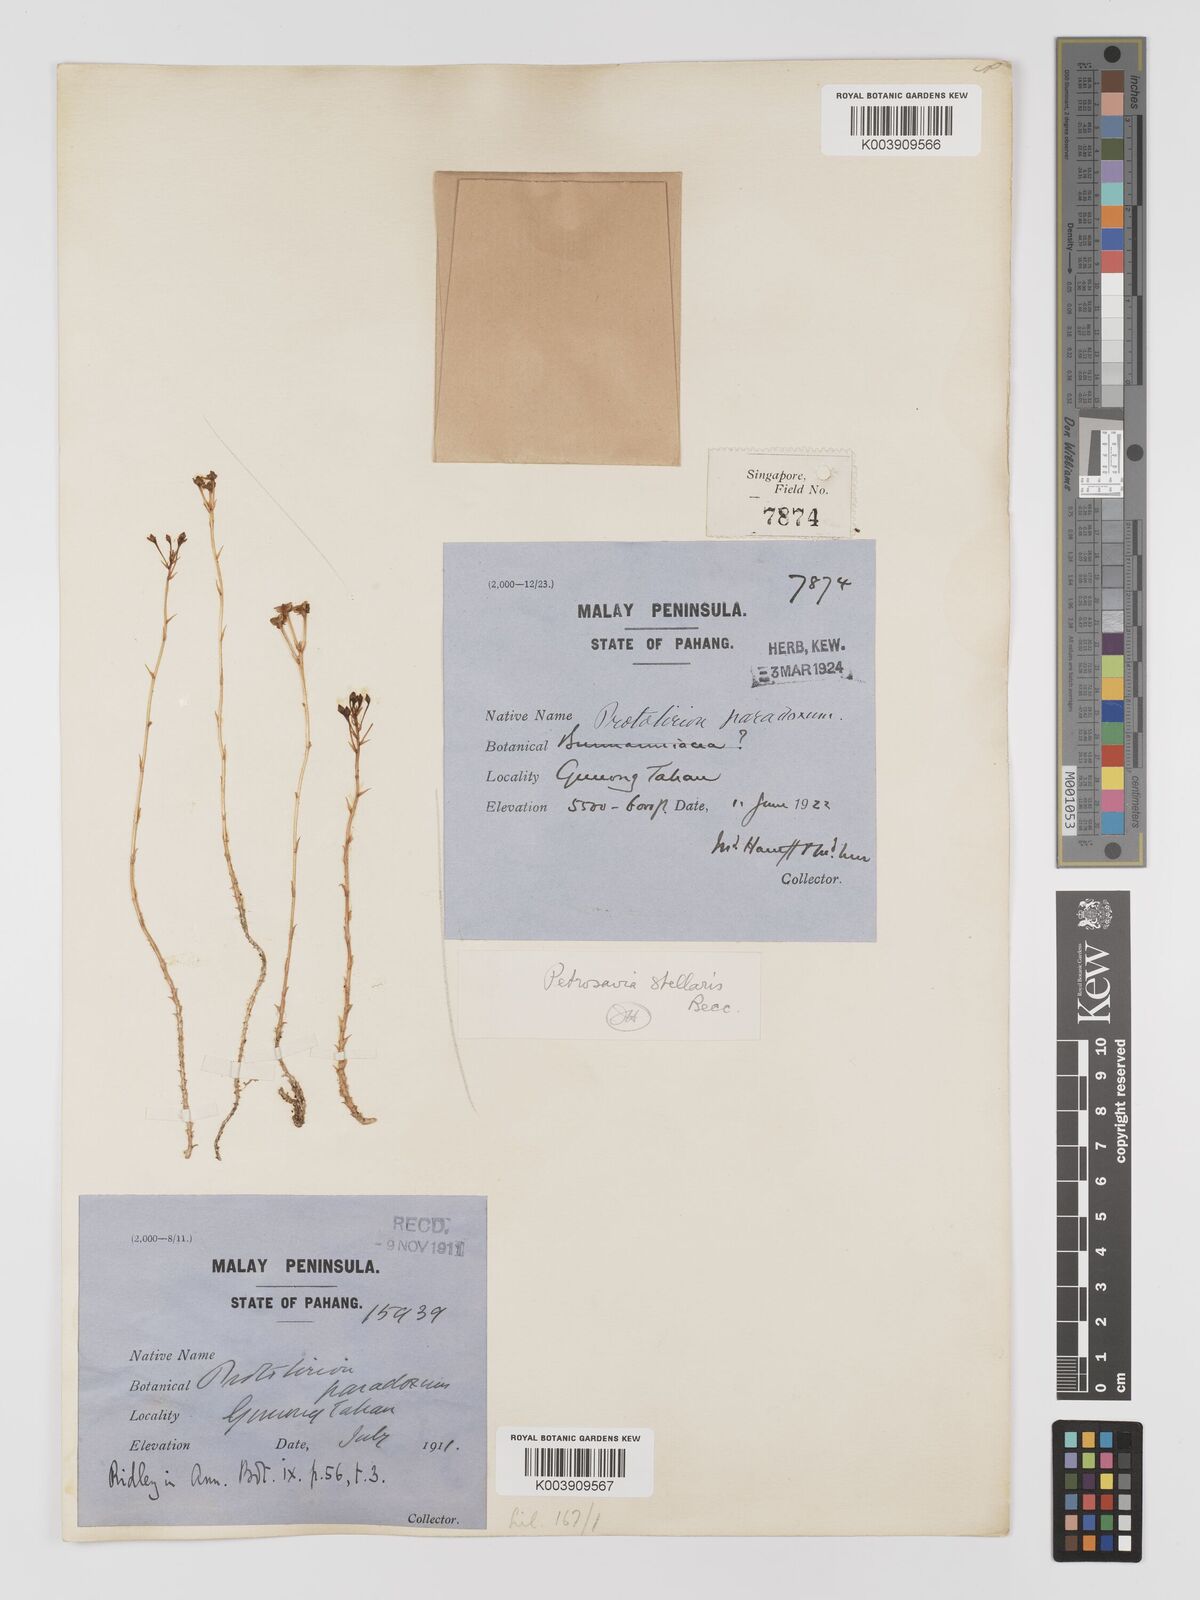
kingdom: Plantae
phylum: Tracheophyta
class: Liliopsida
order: Petrosaviales
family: Petrosaviaceae
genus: Petrosavia
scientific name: Petrosavia stellaris
